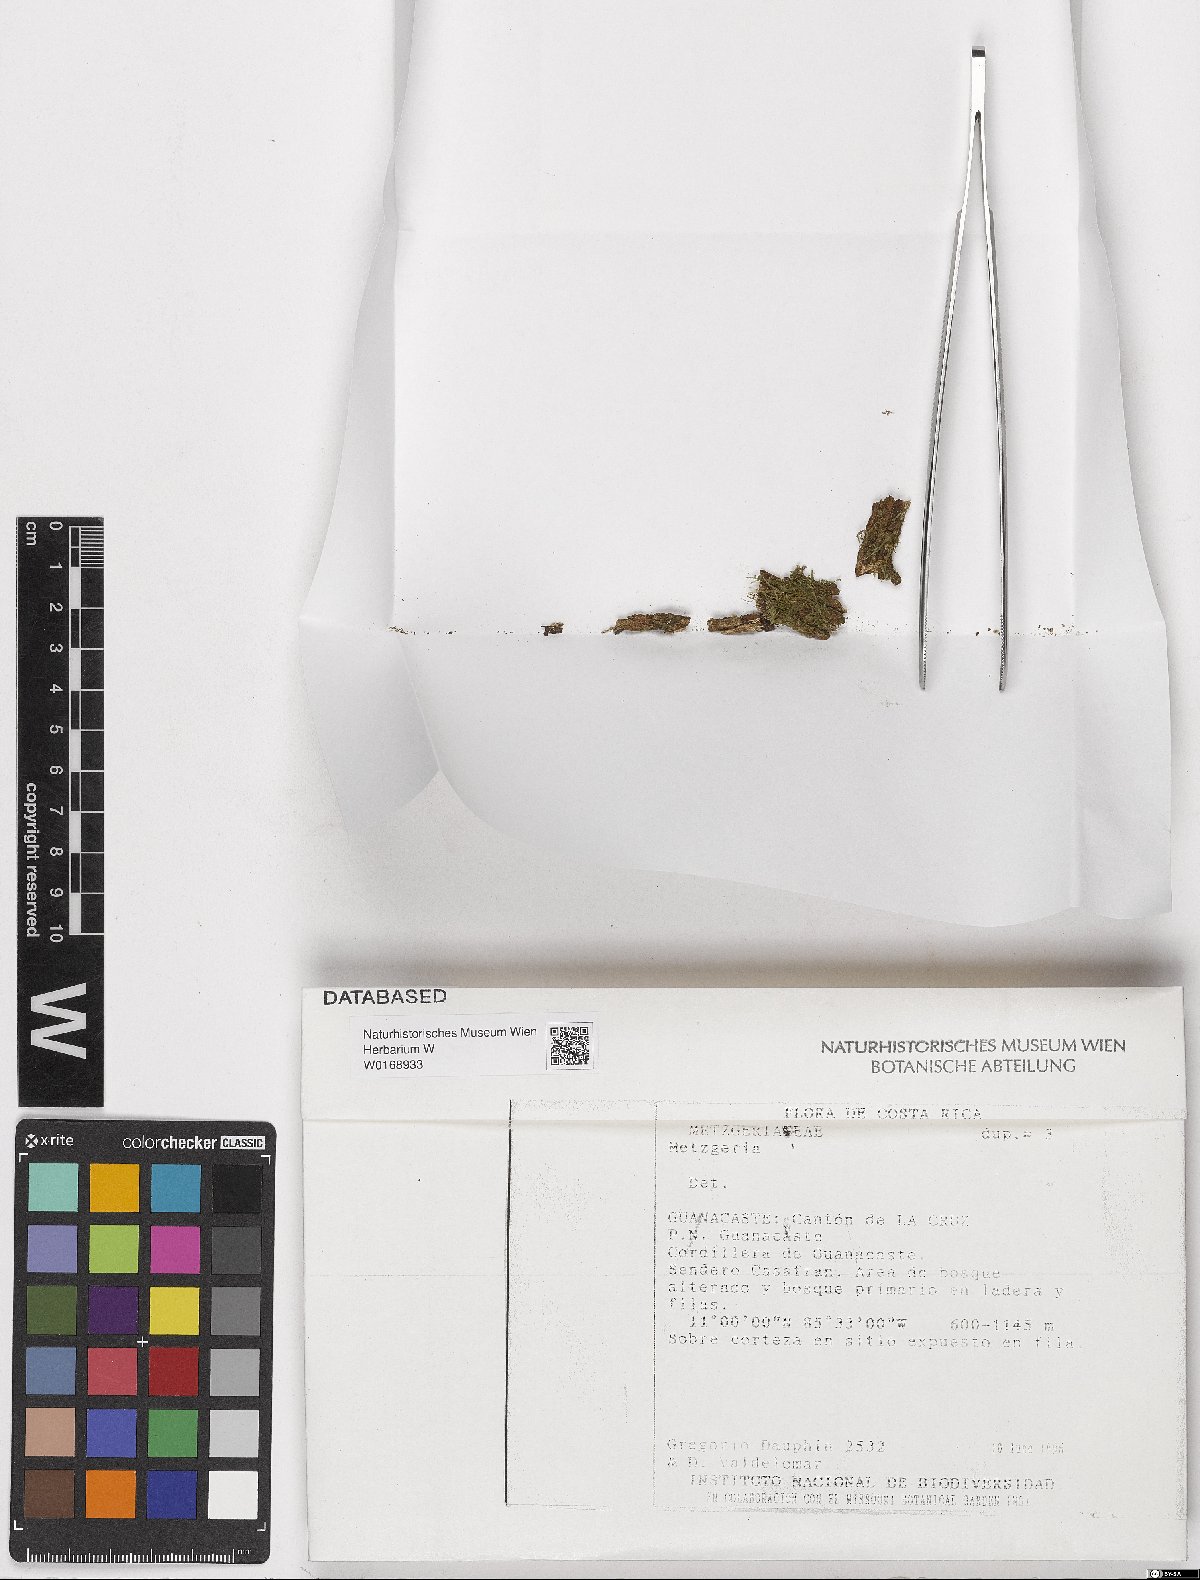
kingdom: Plantae
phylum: Marchantiophyta
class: Jungermanniopsida
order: Porellales
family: Lejeuneaceae
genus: Taxilejeunea
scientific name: Taxilejeunea
